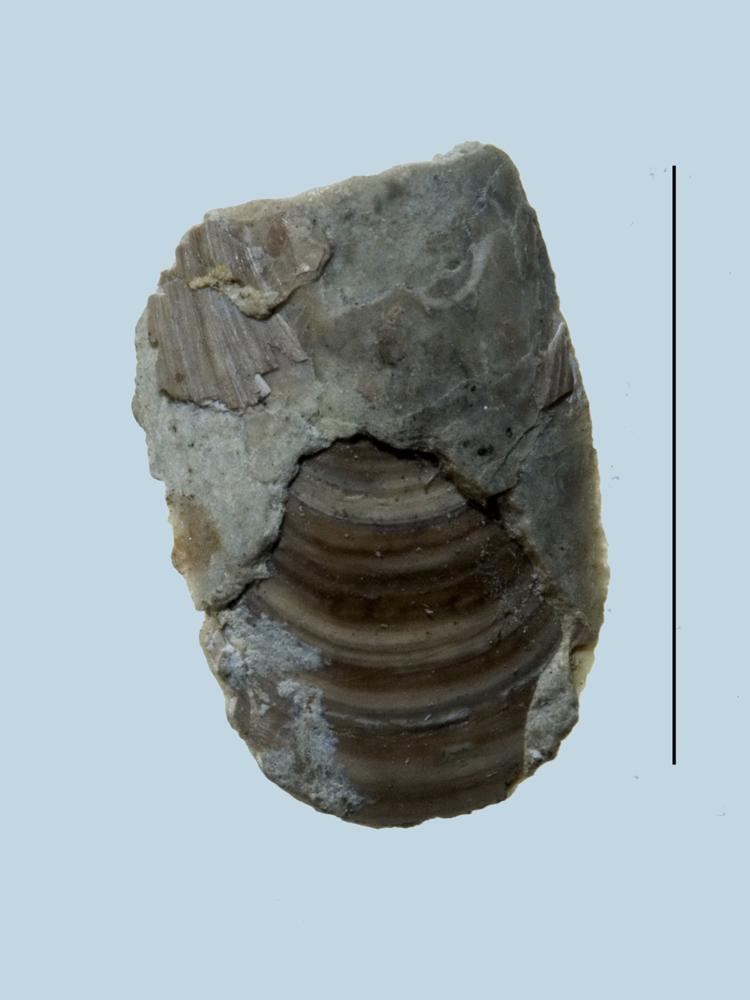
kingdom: Animalia
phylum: Brachiopoda
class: Lingulata
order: Lingulida
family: Lingulidae
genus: Lingula
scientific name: Lingula
